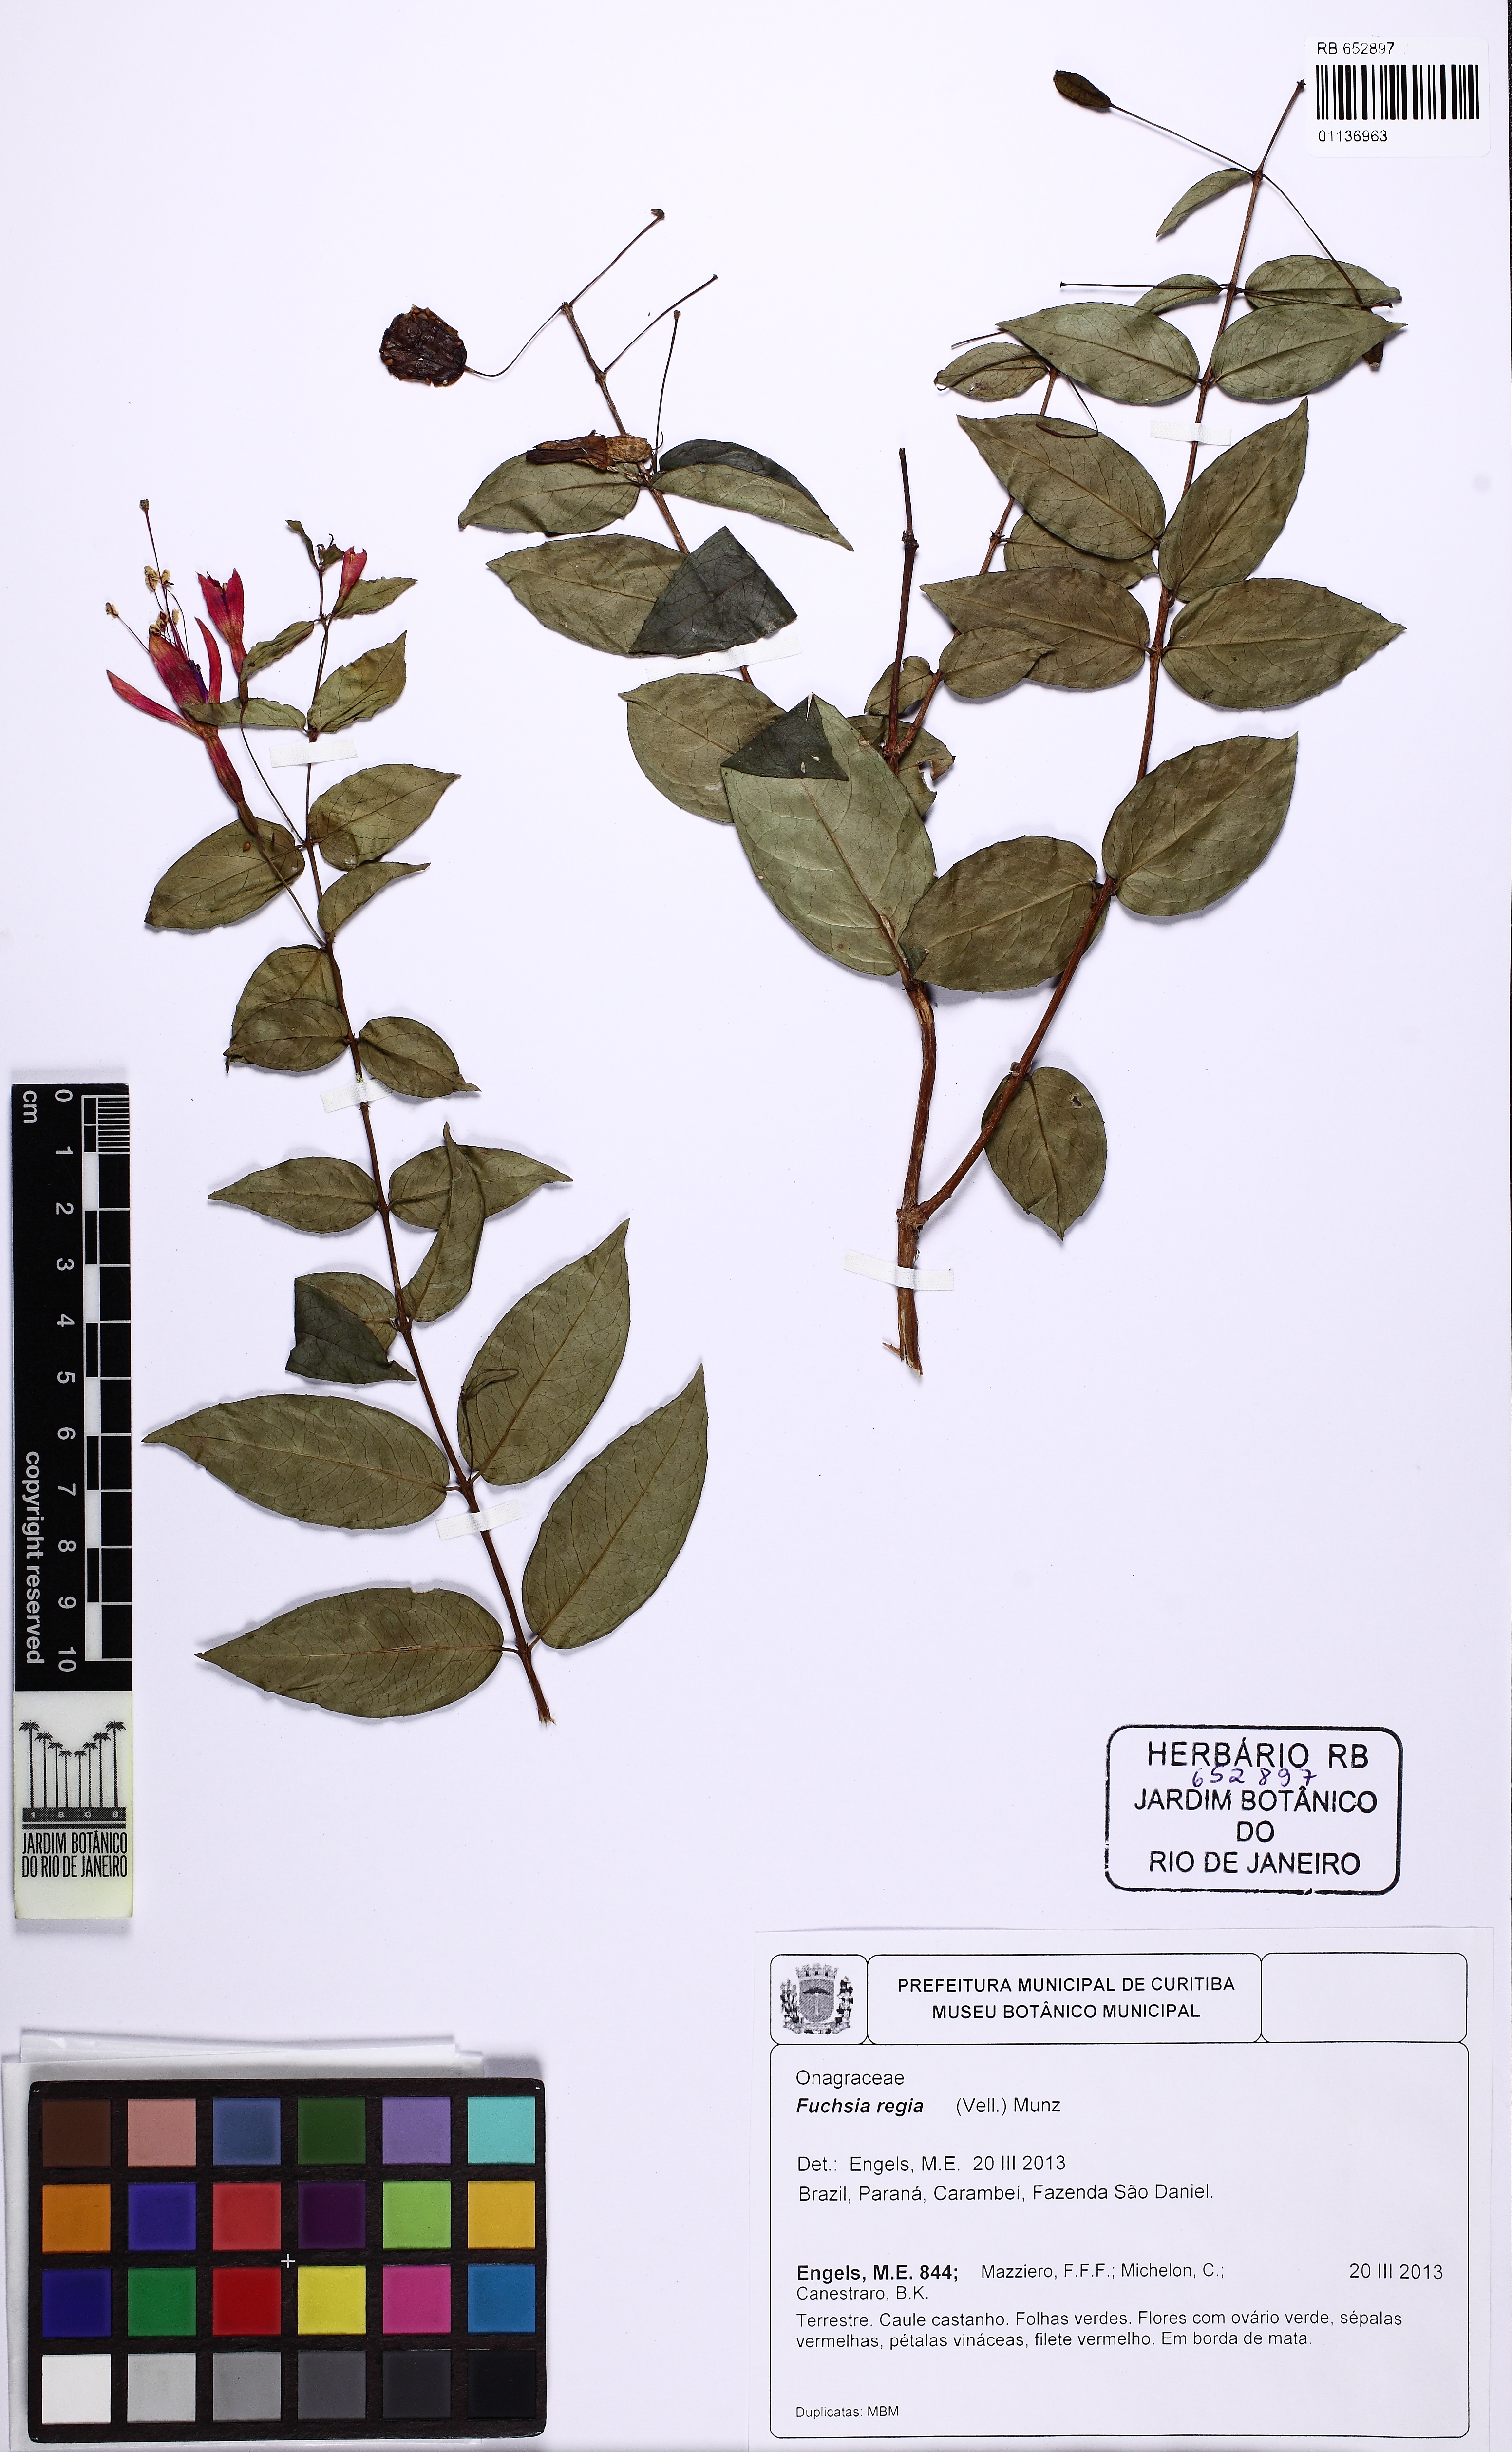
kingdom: Plantae
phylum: Tracheophyta
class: Magnoliopsida
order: Myrtales
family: Onagraceae
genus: Fuchsia
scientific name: Fuchsia regia
